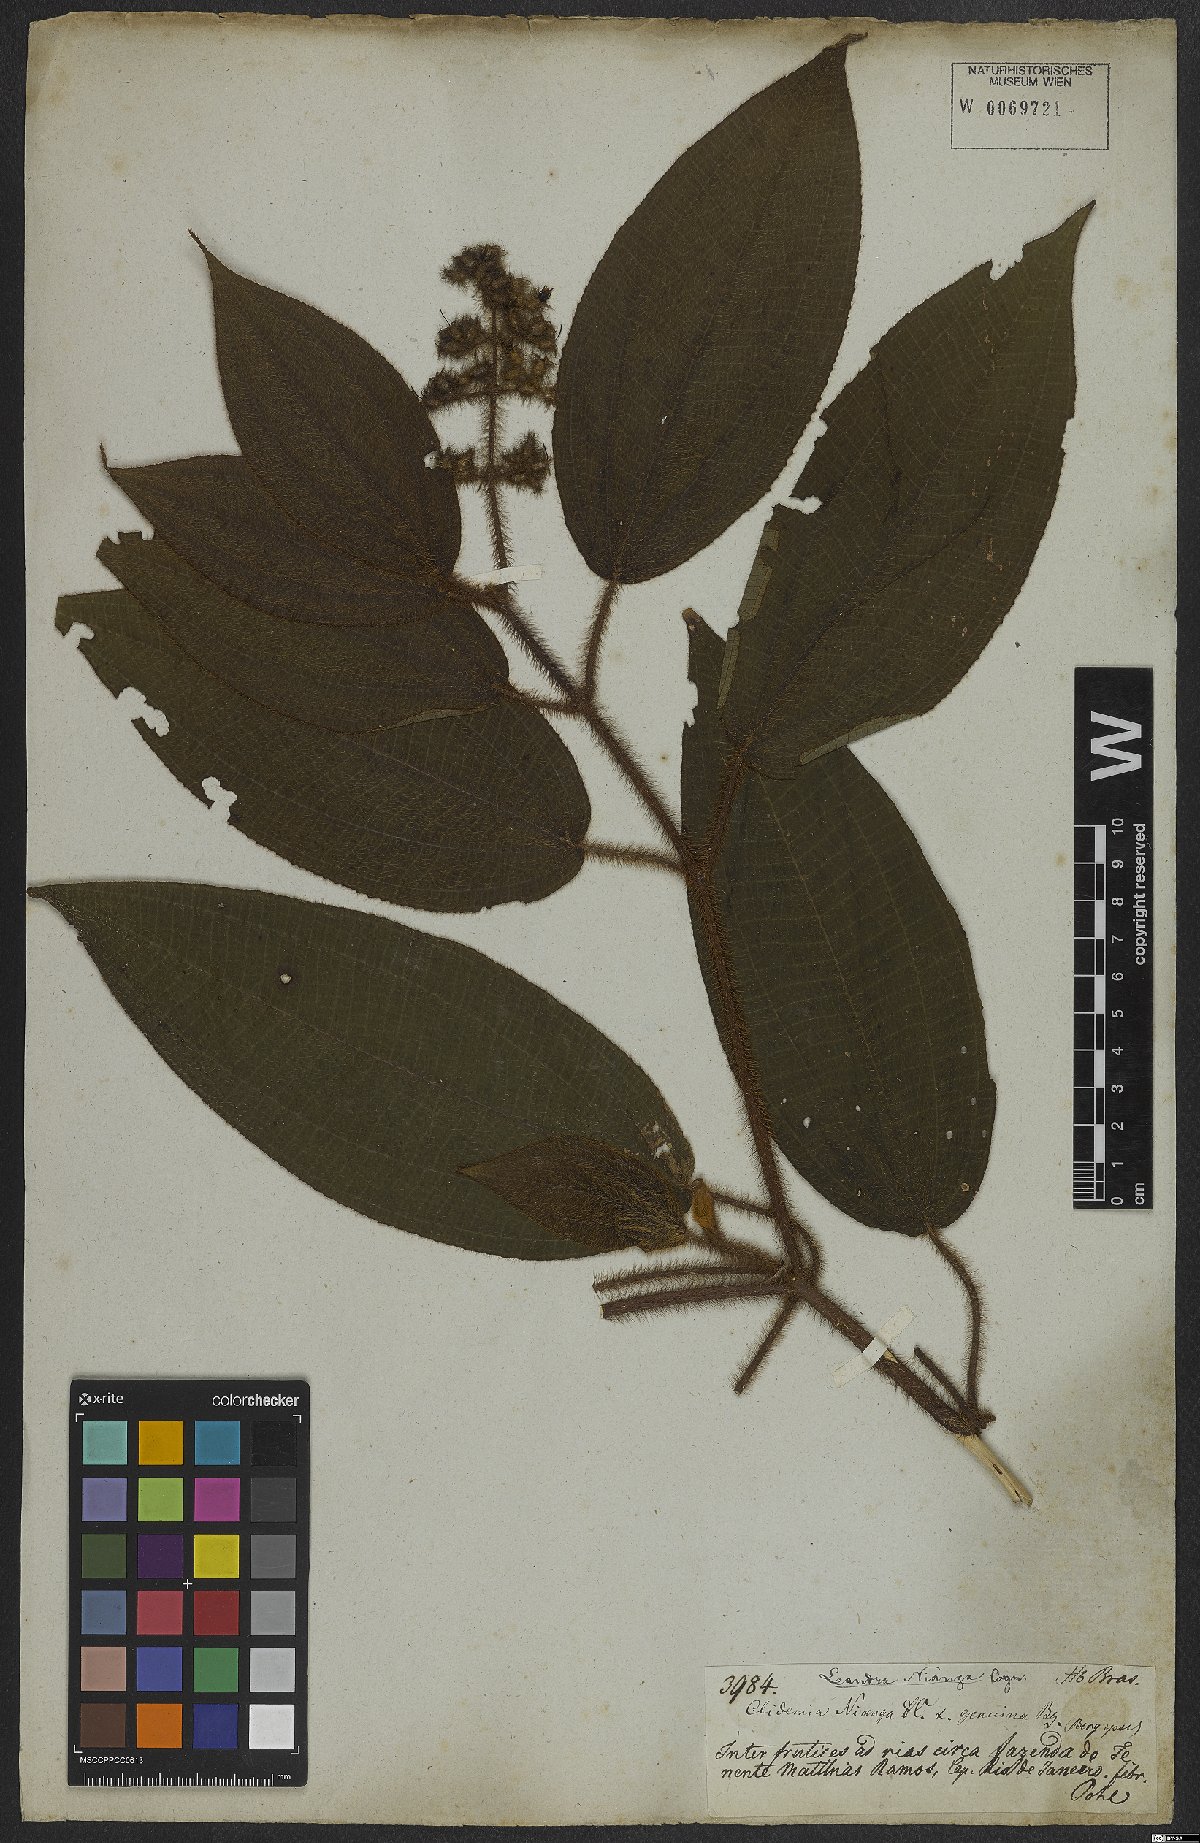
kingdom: Plantae
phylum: Tracheophyta
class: Magnoliopsida
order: Myrtales
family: Melastomataceae
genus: Miconia
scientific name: Miconia nianga
